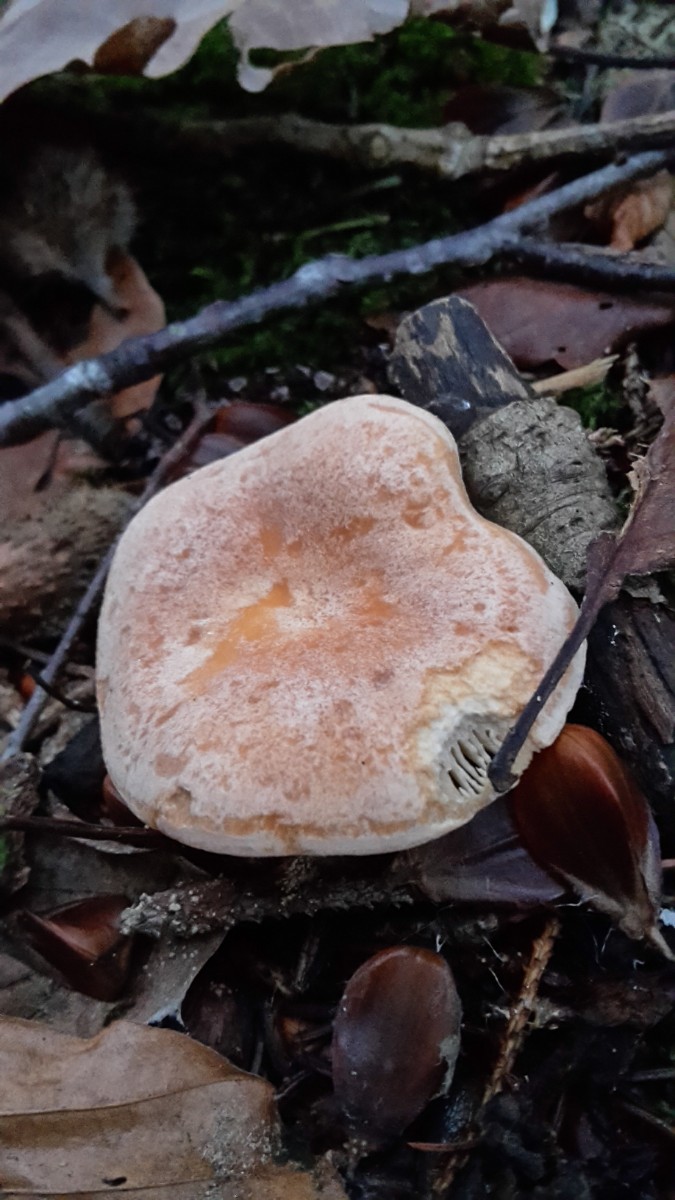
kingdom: Fungi
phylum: Basidiomycota
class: Agaricomycetes
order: Russulales
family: Russulaceae
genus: Lactarius
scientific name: Lactarius chrysorrheus
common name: svovlmælket mælkehat
